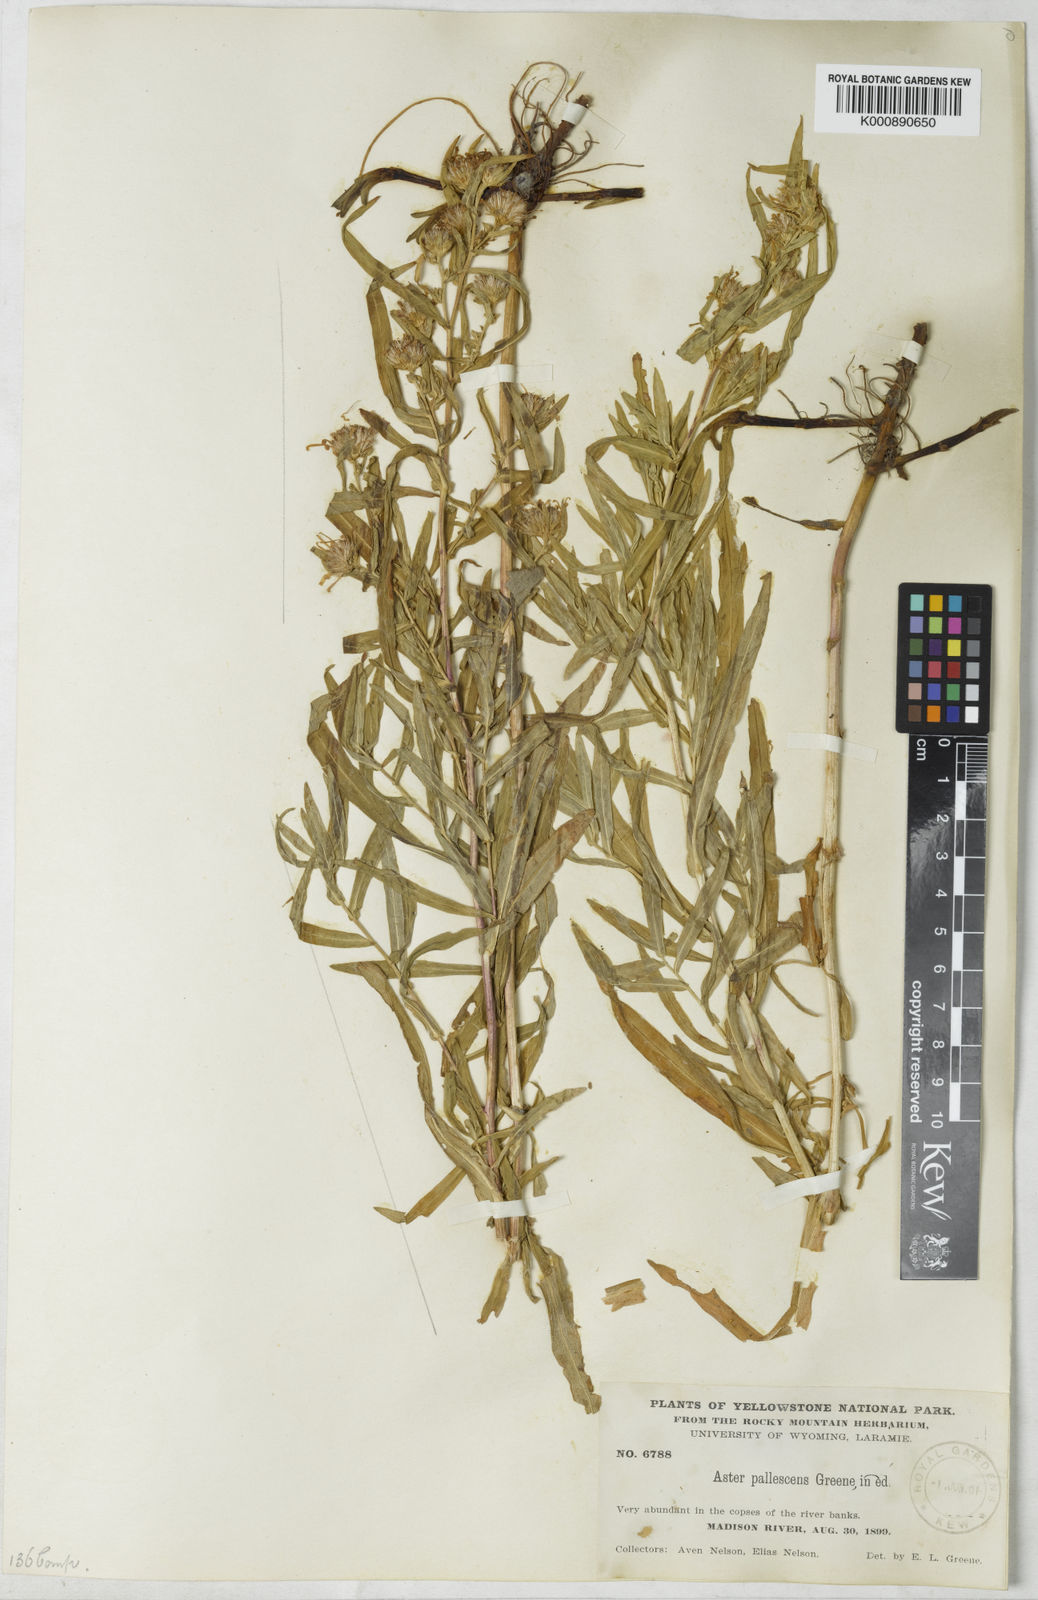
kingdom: Plantae
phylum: Tracheophyta
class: Magnoliopsida
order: Asterales
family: Asteraceae
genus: Aster
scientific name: Aster
